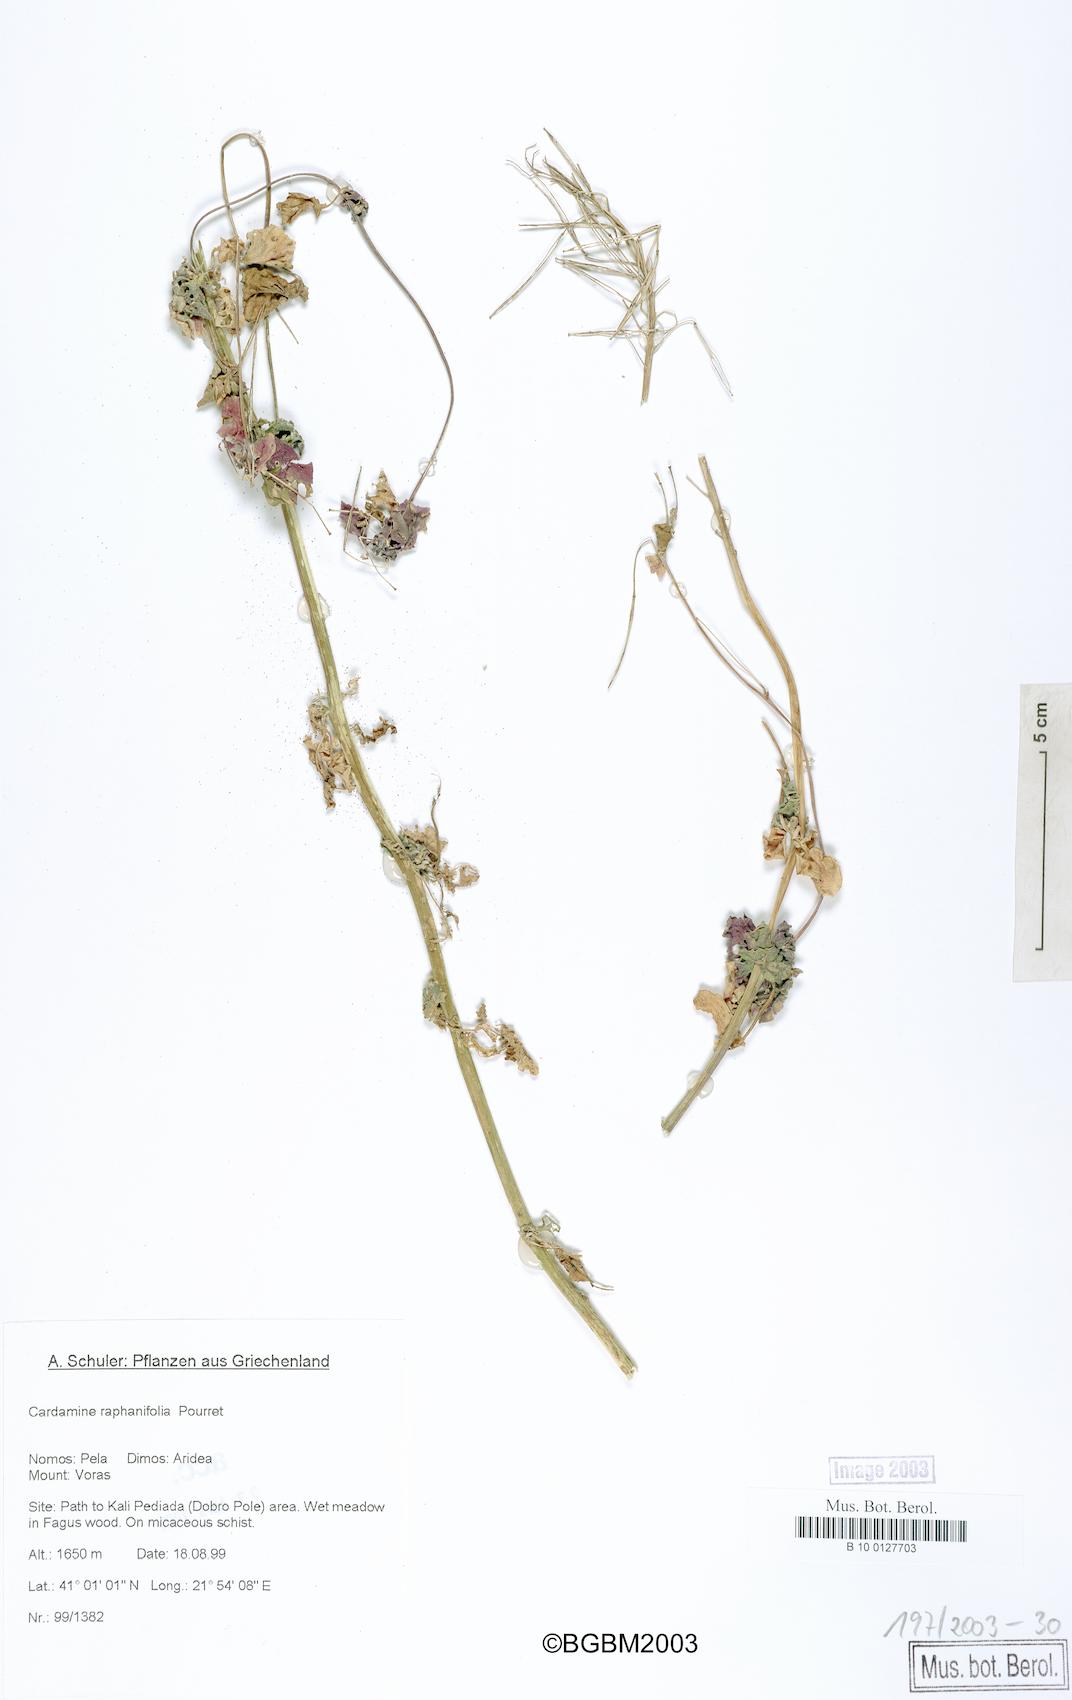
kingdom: Plantae
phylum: Tracheophyta
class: Magnoliopsida
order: Brassicales
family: Brassicaceae
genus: Cardamine
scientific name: Cardamine raphanifolia
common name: Greater cuckooflower
